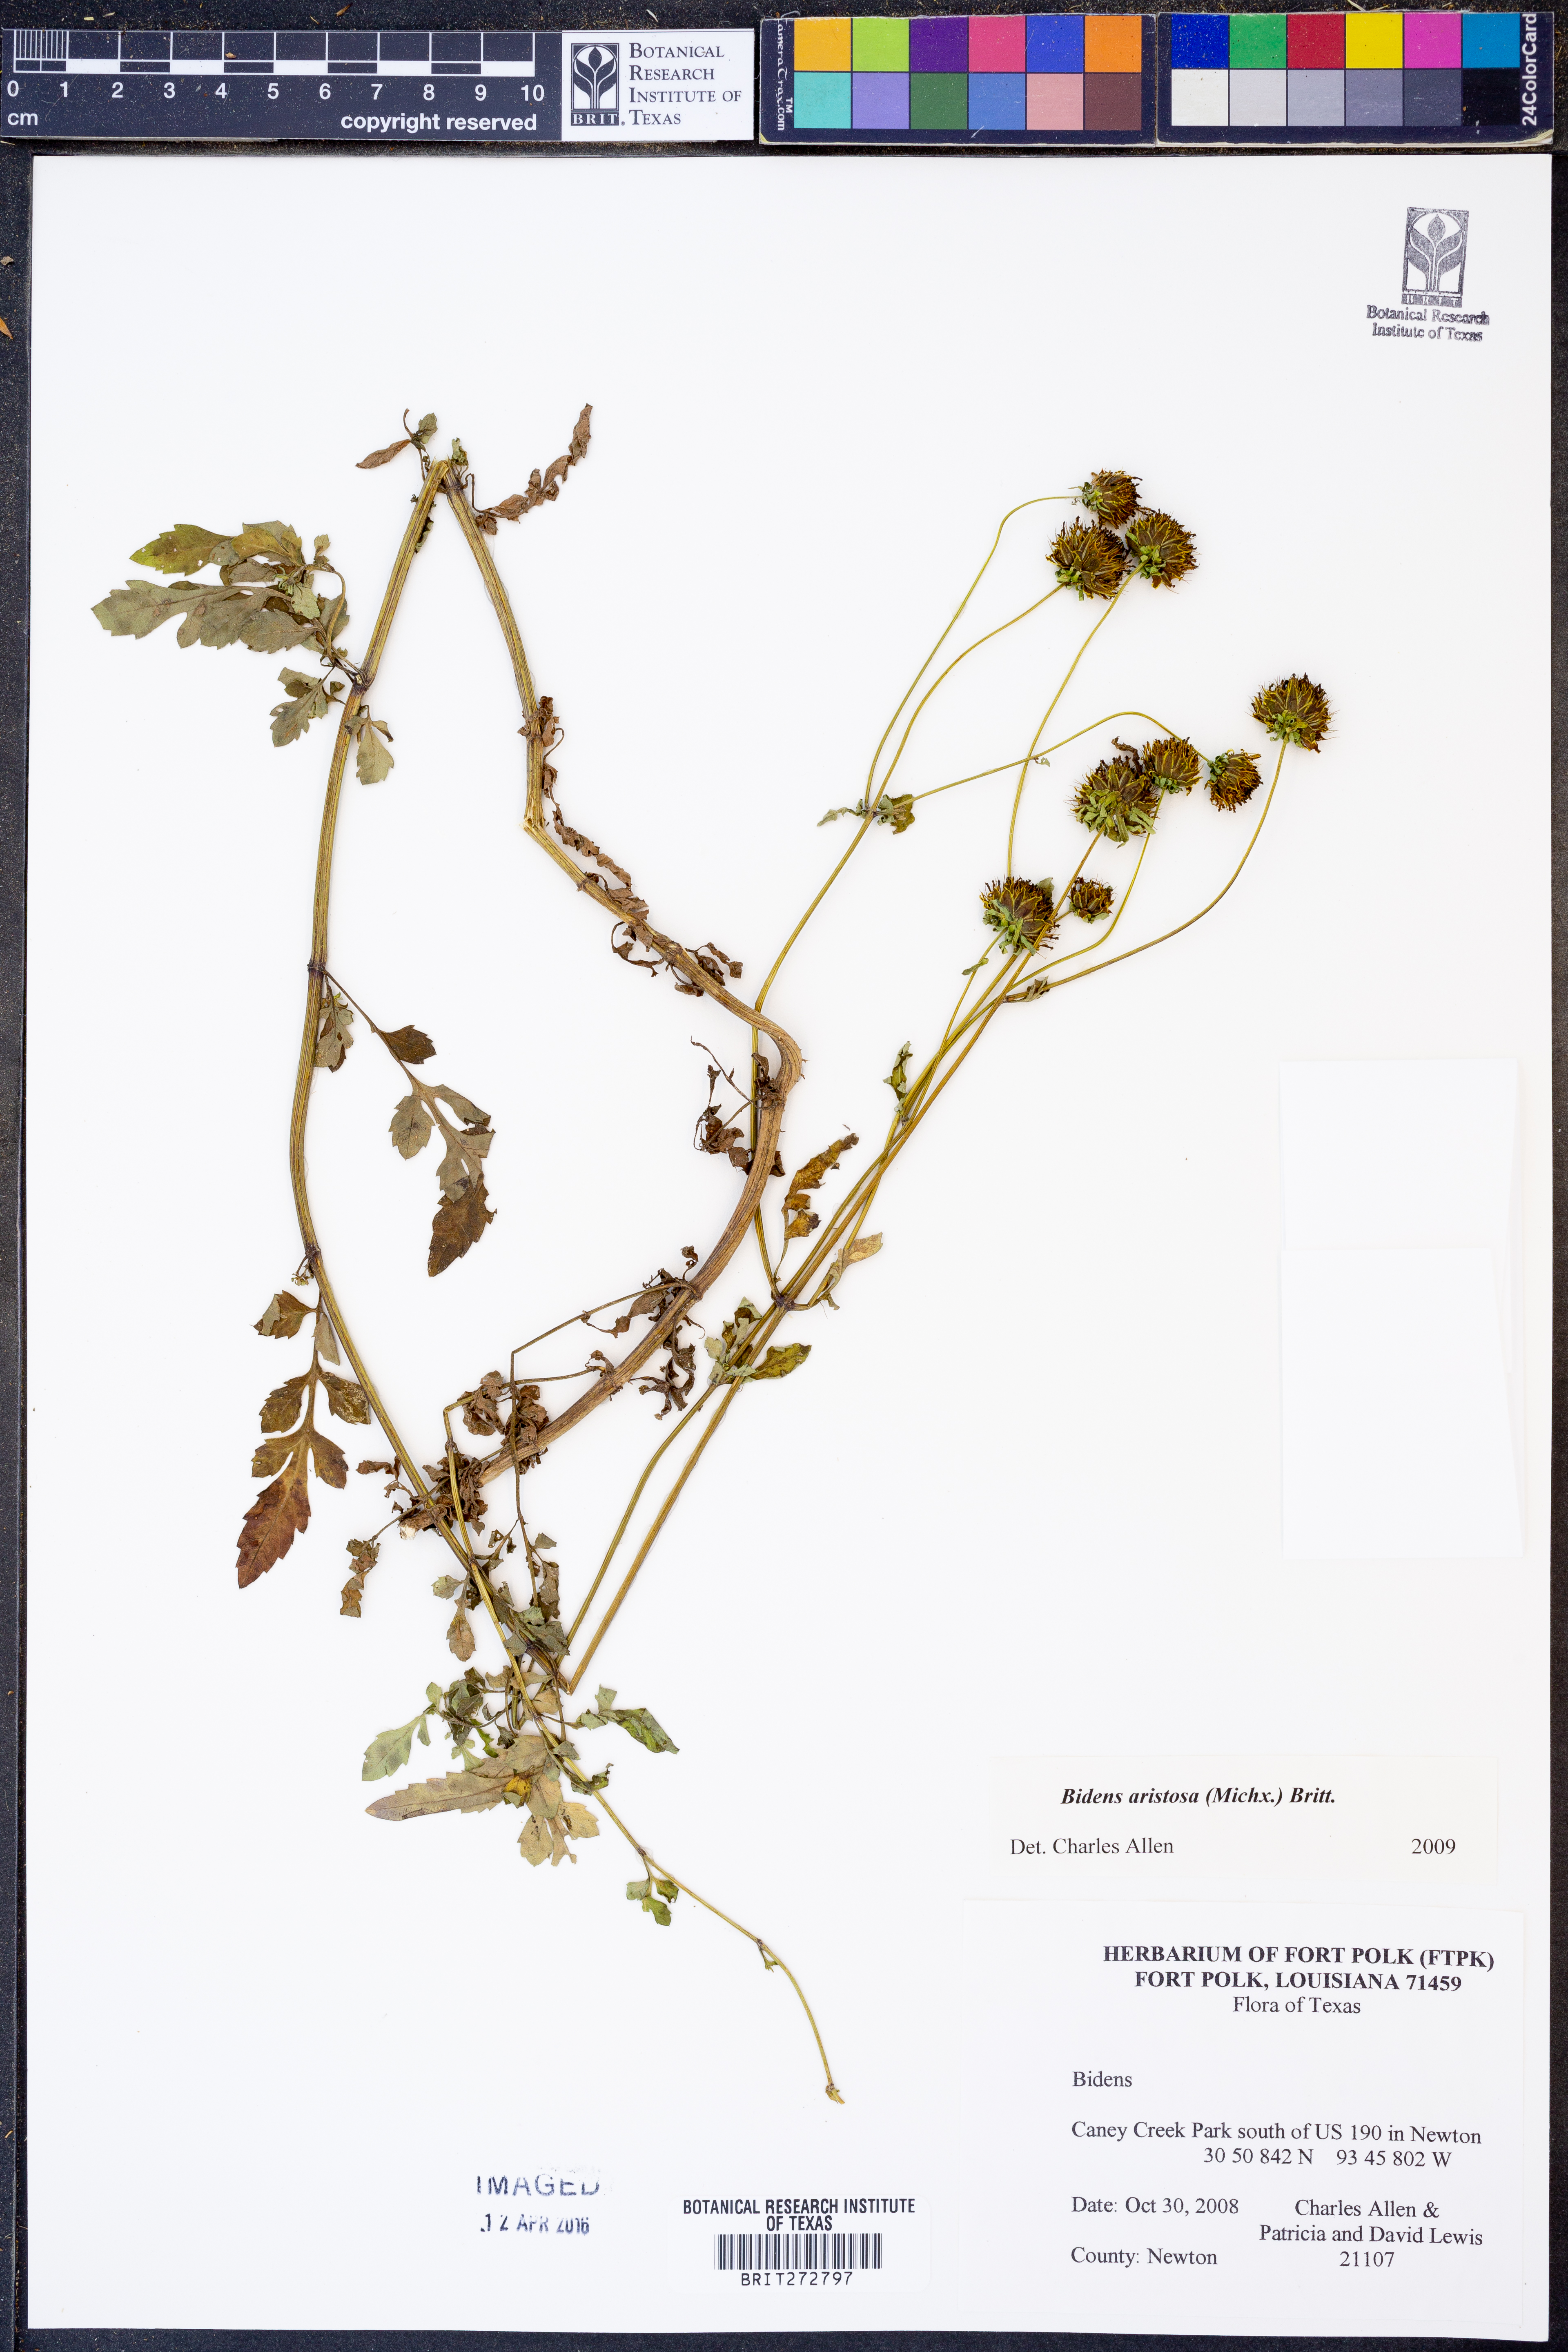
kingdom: Plantae
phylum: Tracheophyta
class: Magnoliopsida
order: Asterales
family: Asteraceae
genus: Bidens
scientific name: Bidens aristosa
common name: Western tickseed
